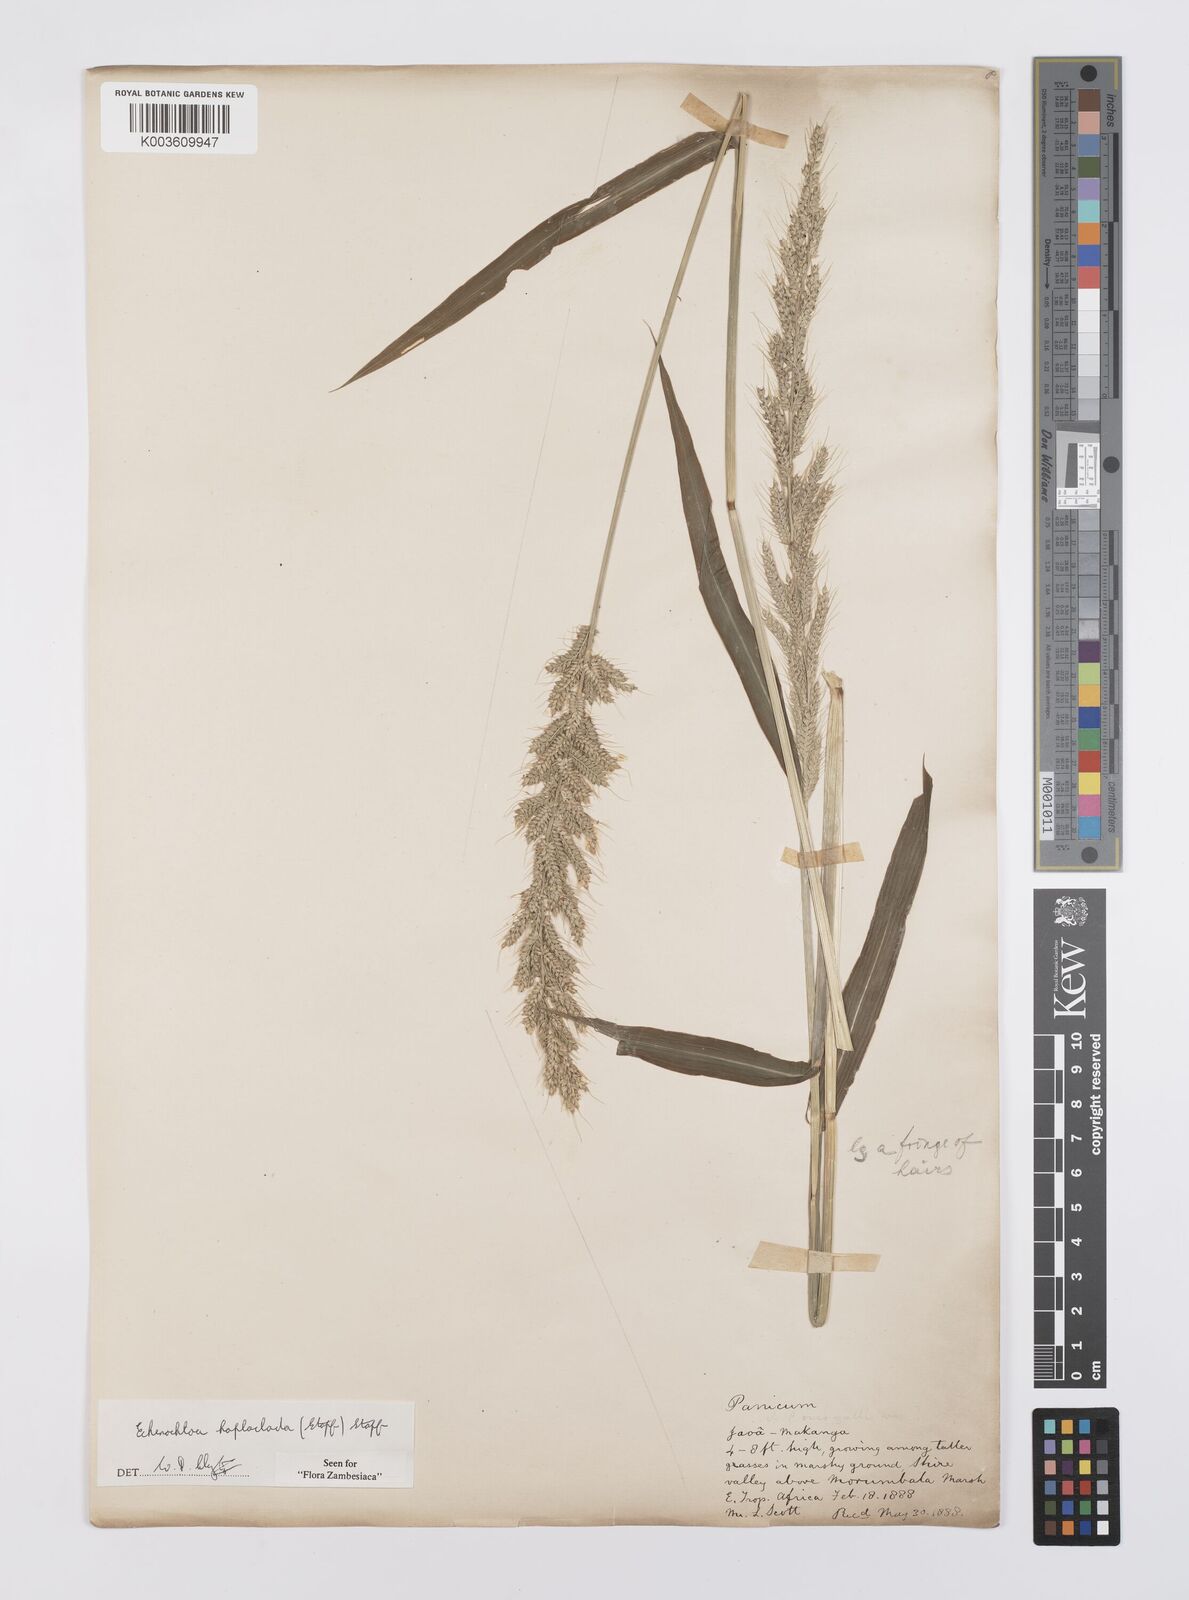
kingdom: Plantae
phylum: Tracheophyta
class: Liliopsida
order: Poales
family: Poaceae
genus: Echinochloa
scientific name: Echinochloa haploclada
